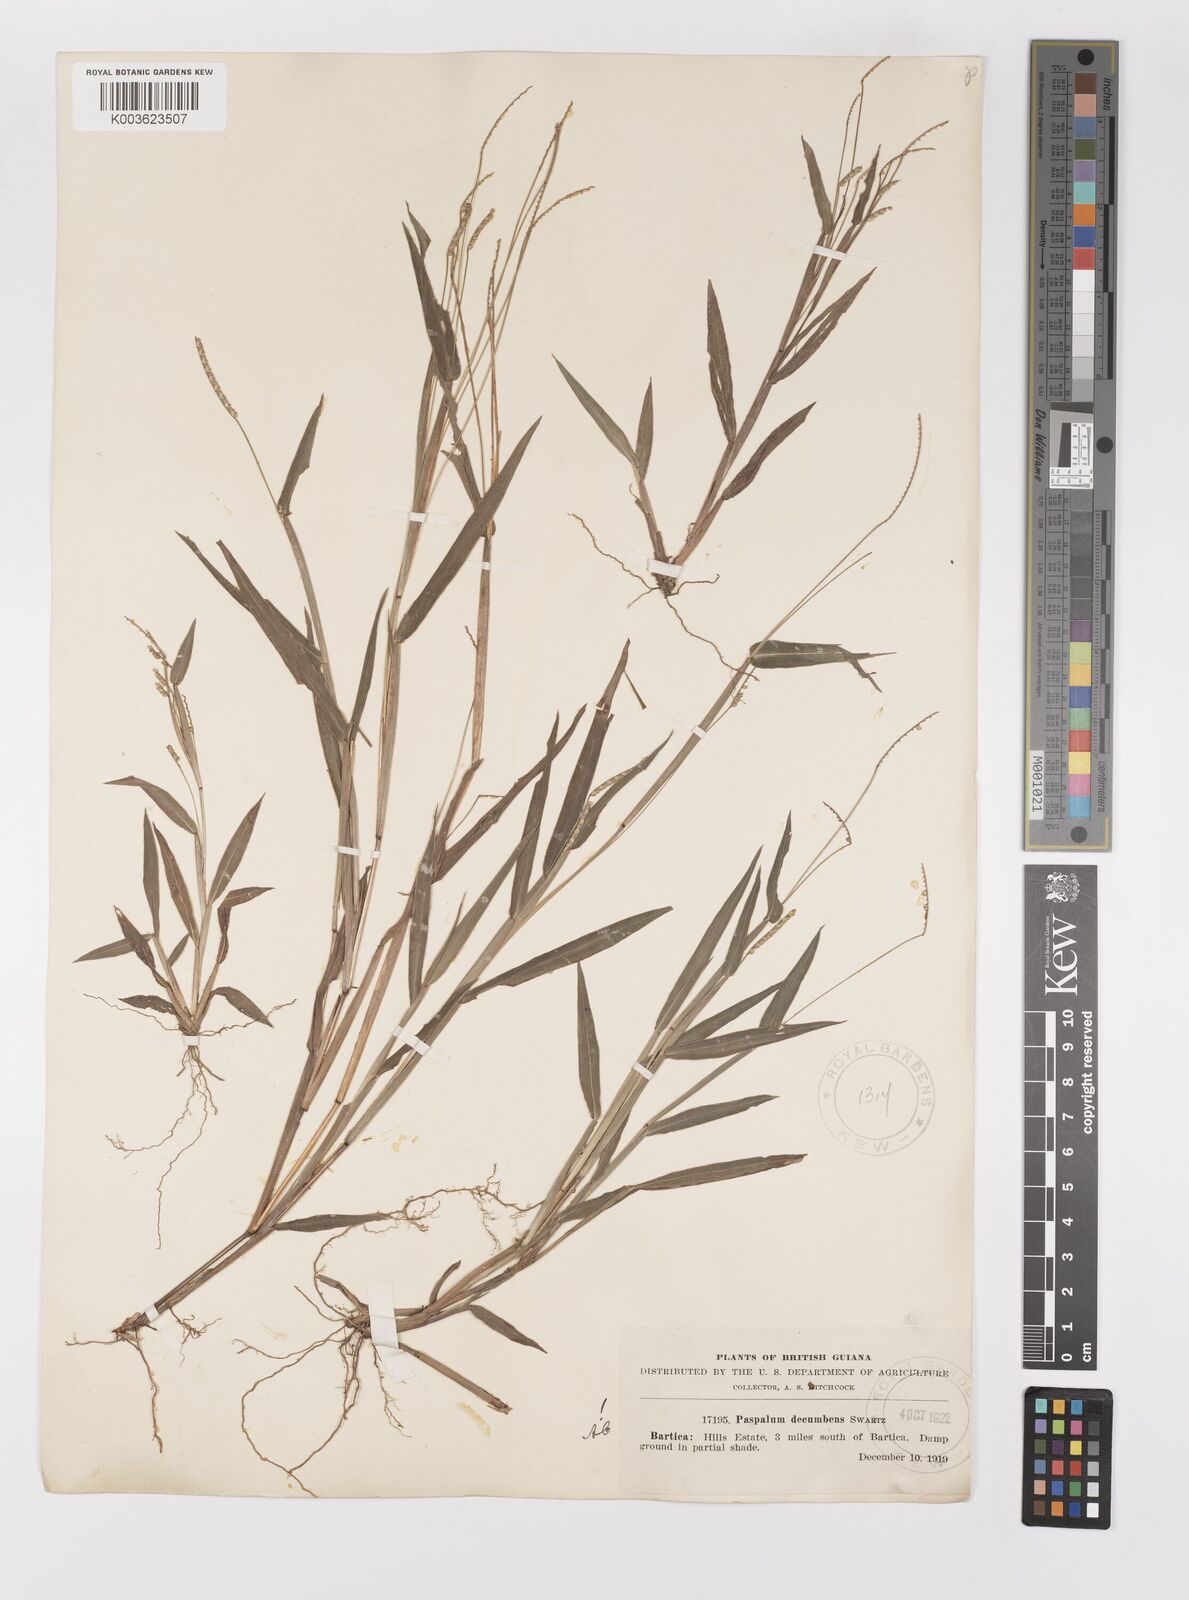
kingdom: Plantae
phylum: Tracheophyta
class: Liliopsida
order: Poales
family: Poaceae
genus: Paspalum
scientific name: Paspalum decumbens
